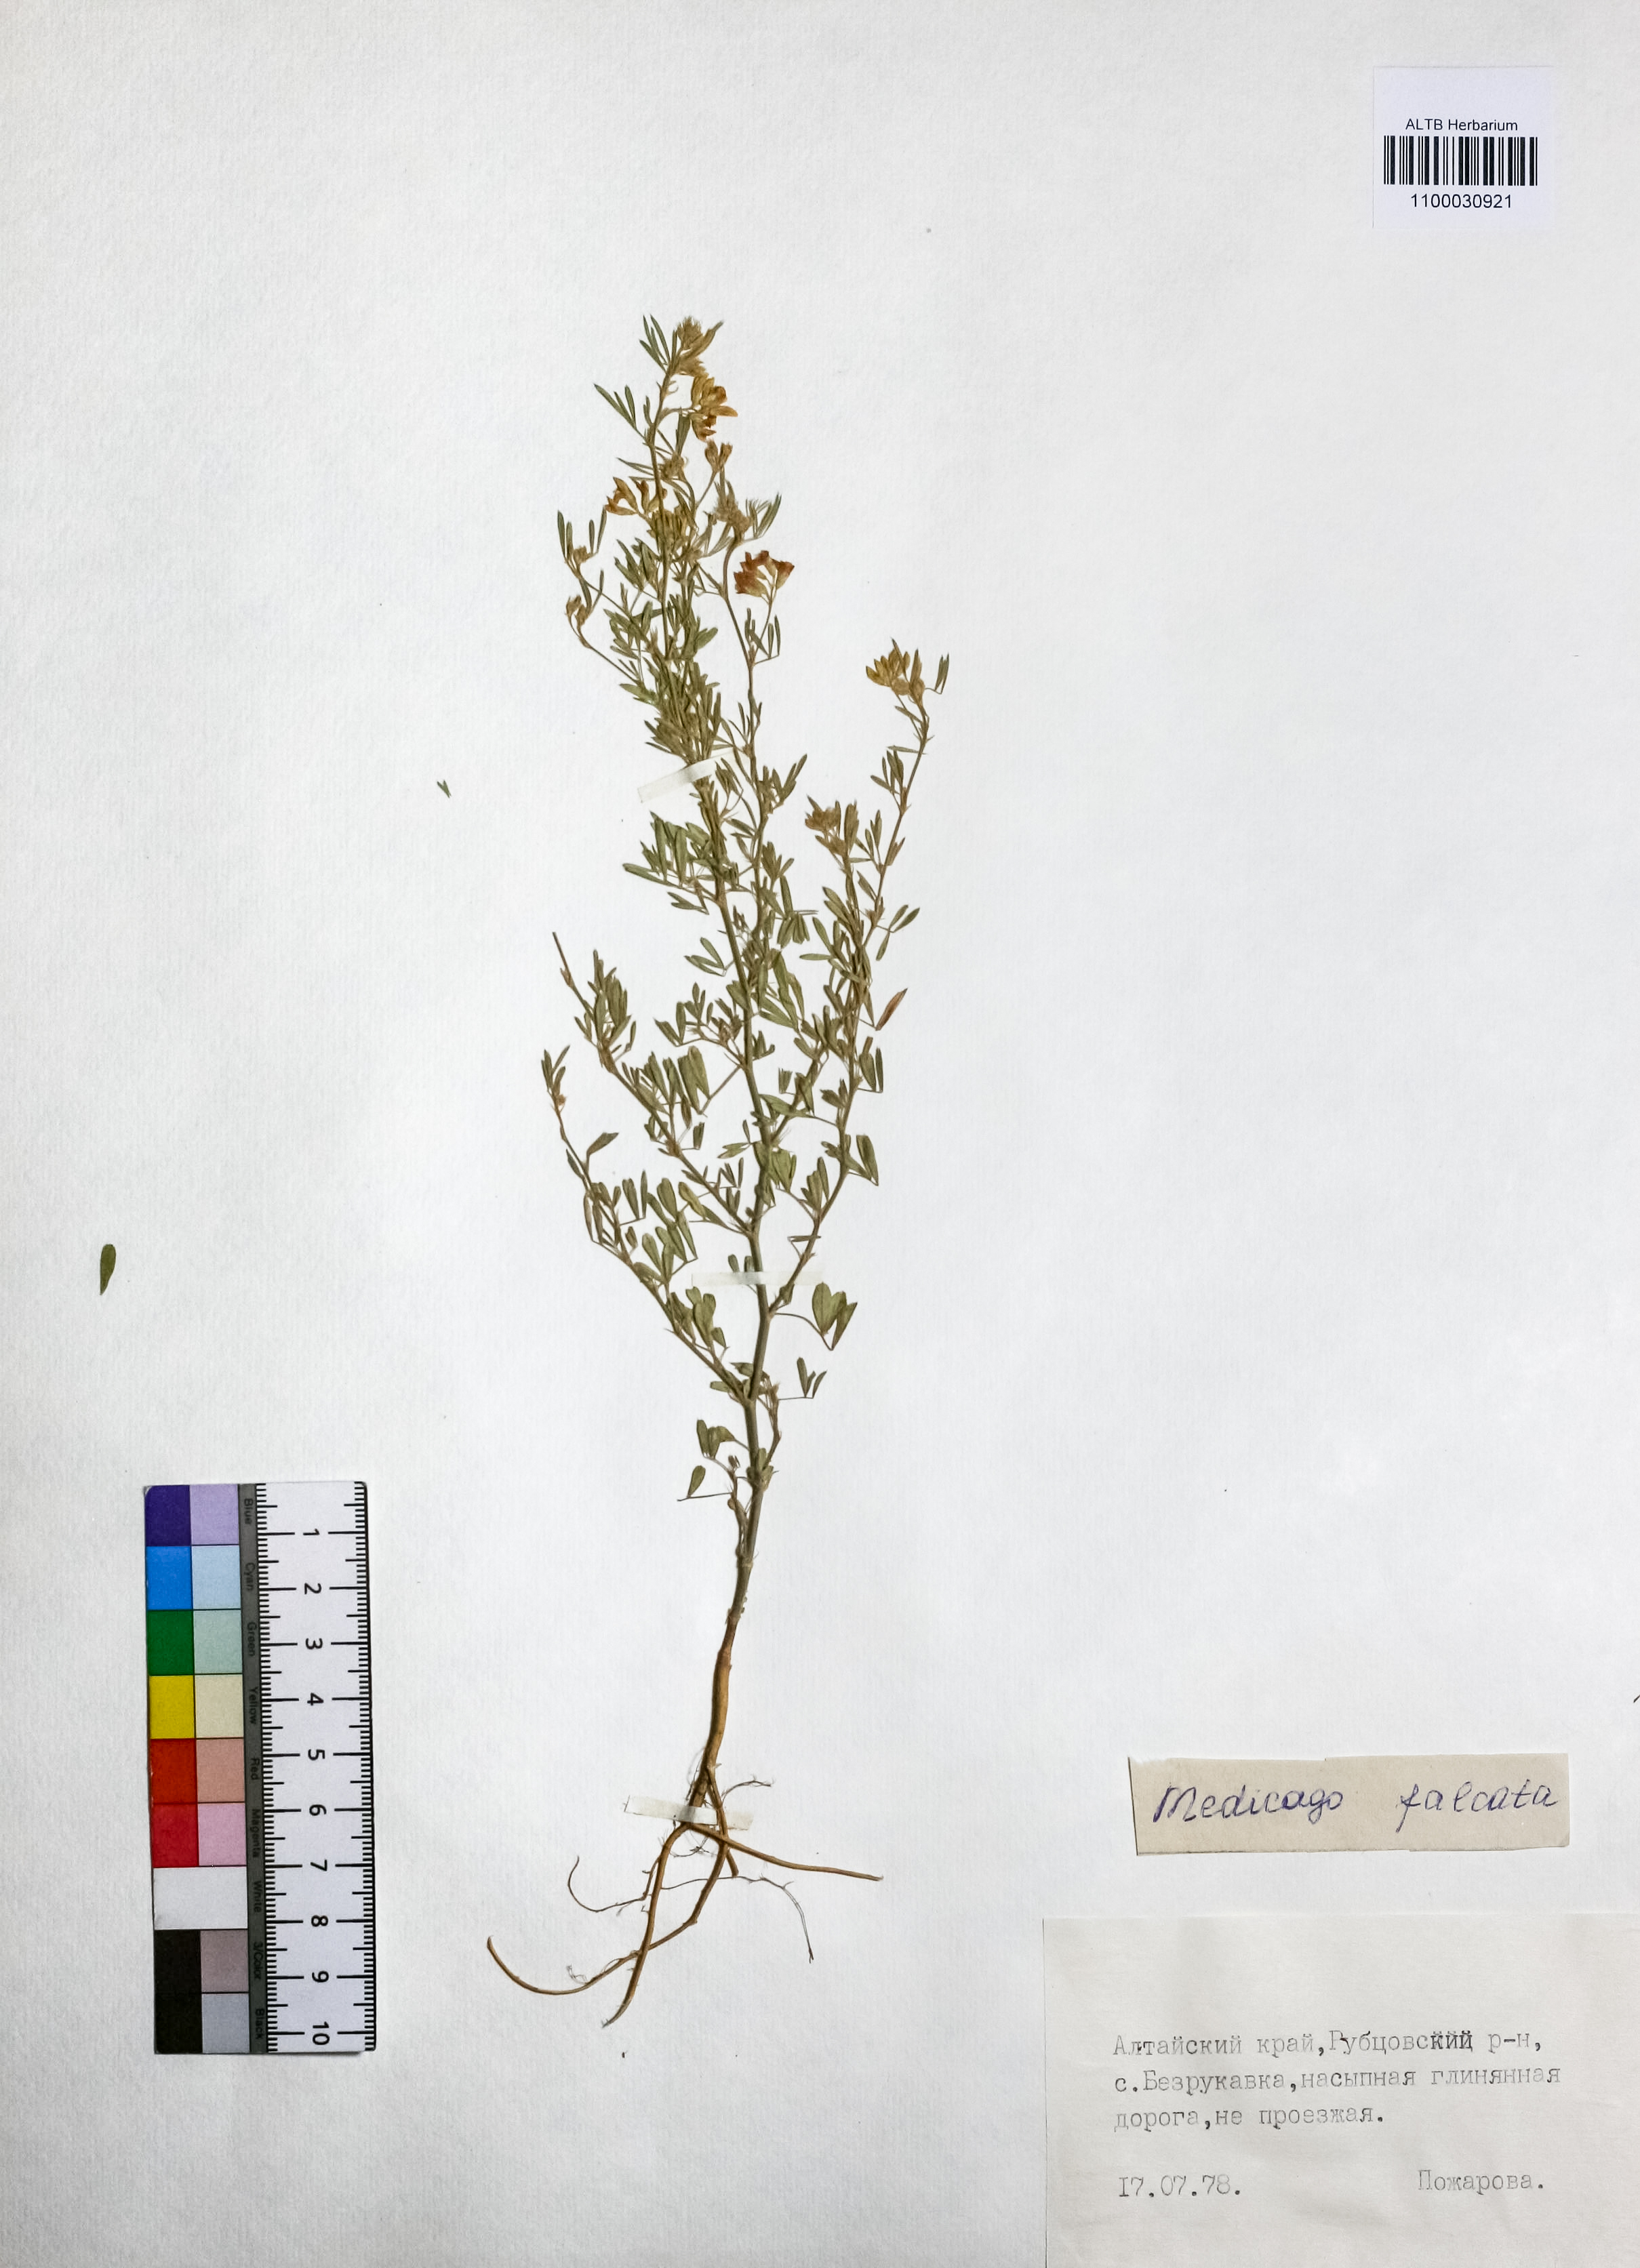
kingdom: Plantae
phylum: Tracheophyta
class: Magnoliopsida
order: Fabales
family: Fabaceae
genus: Medicago
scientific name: Medicago falcata
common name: Sickle medick
